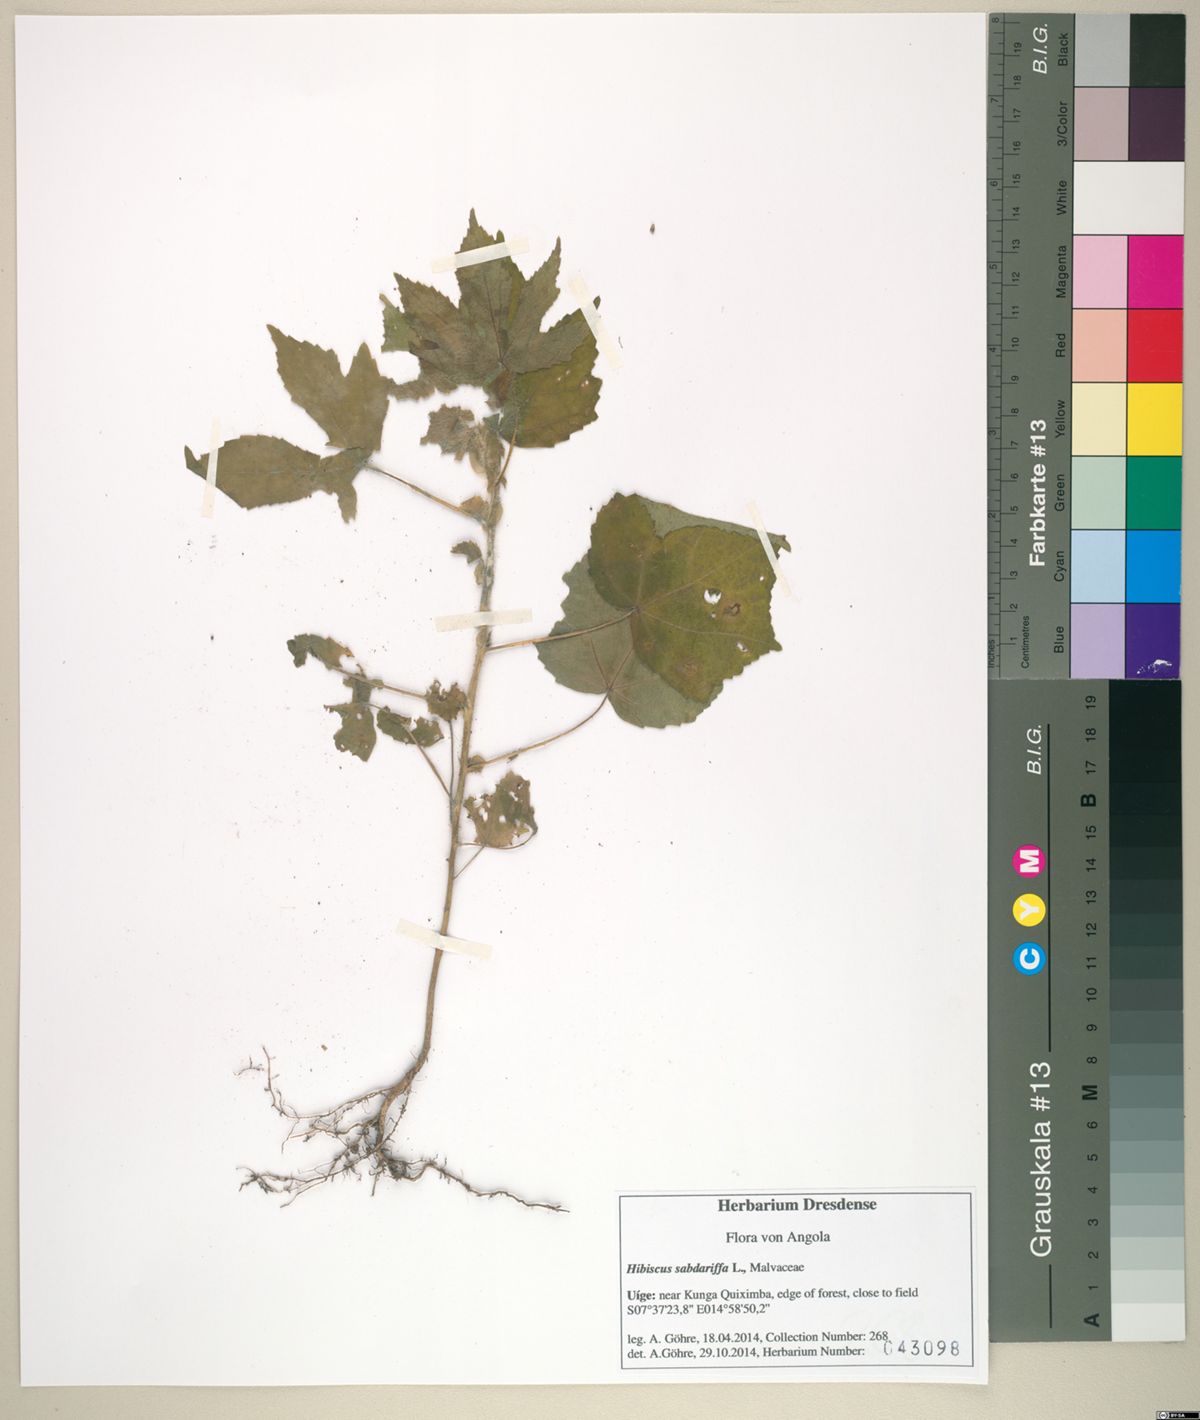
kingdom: Plantae
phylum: Tracheophyta
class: Magnoliopsida
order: Malvales
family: Malvaceae
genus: Hibiscus
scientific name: Hibiscus sabdariffa
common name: Roselle
